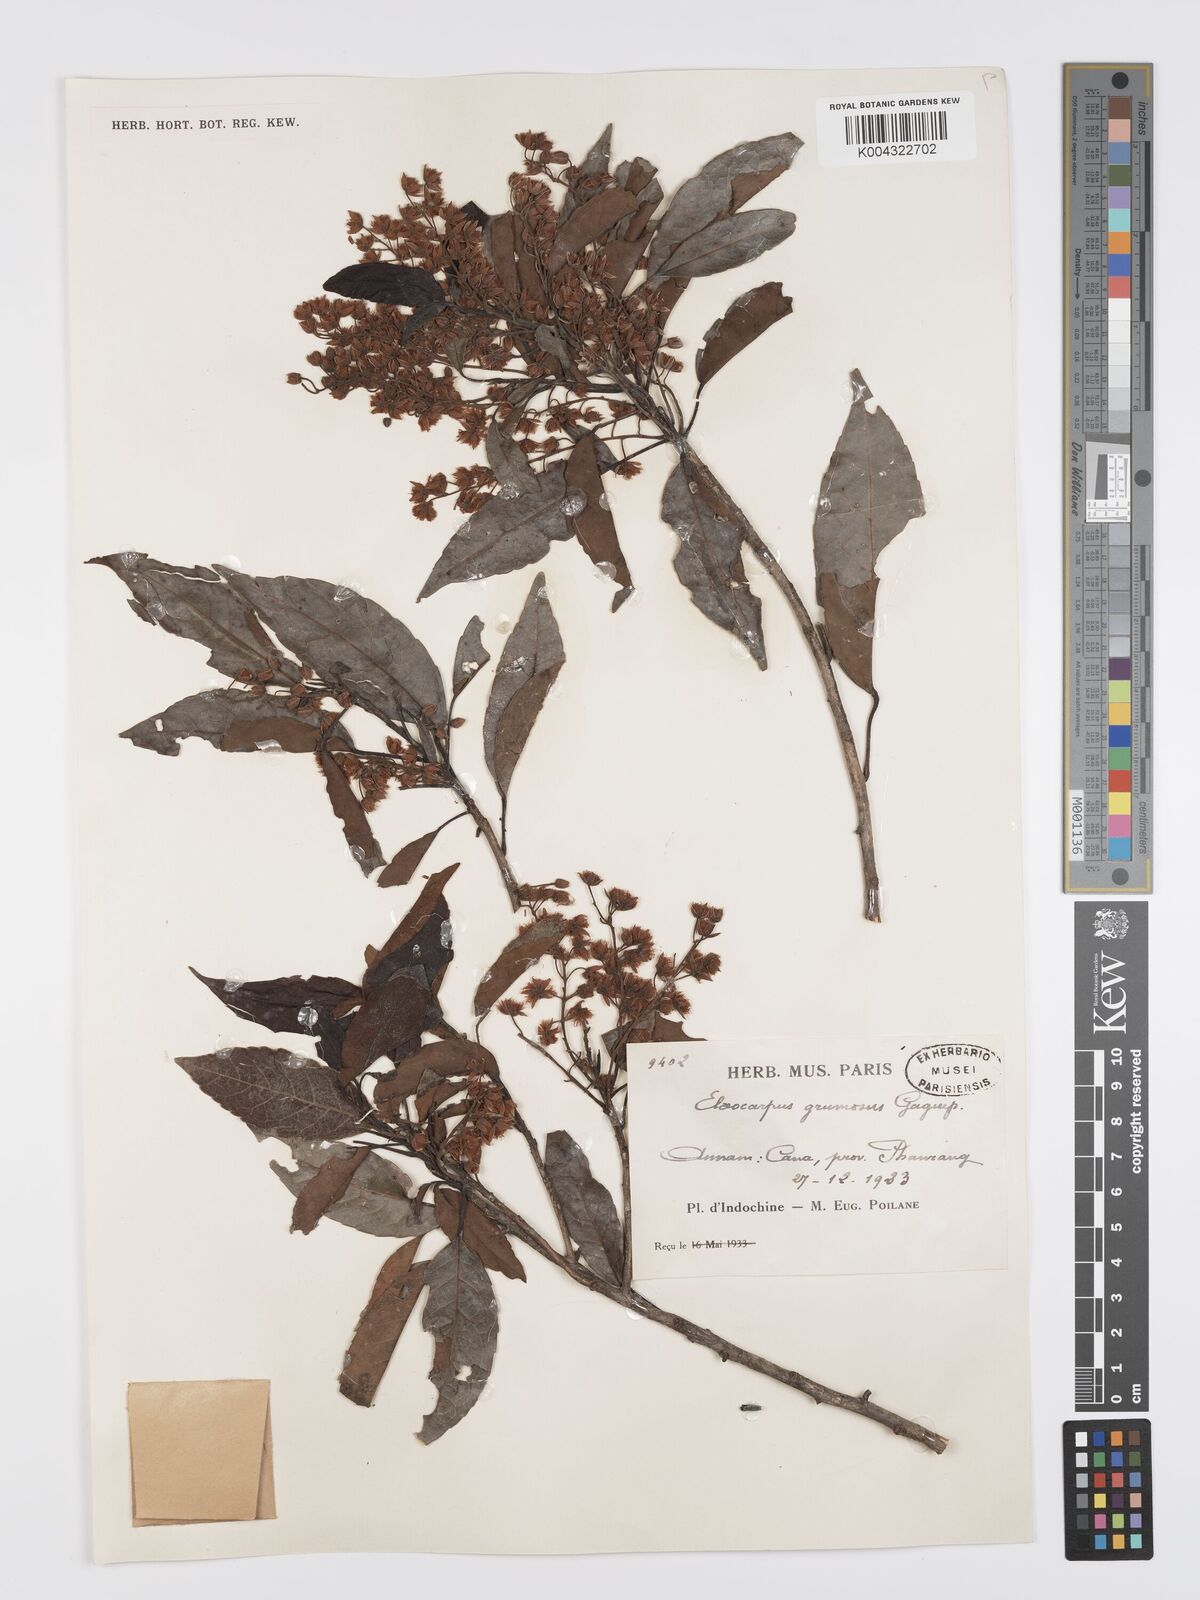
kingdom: Plantae
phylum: Tracheophyta
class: Magnoliopsida
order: Oxalidales
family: Elaeocarpaceae
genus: Elaeocarpus
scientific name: Elaeocarpus grumosus
